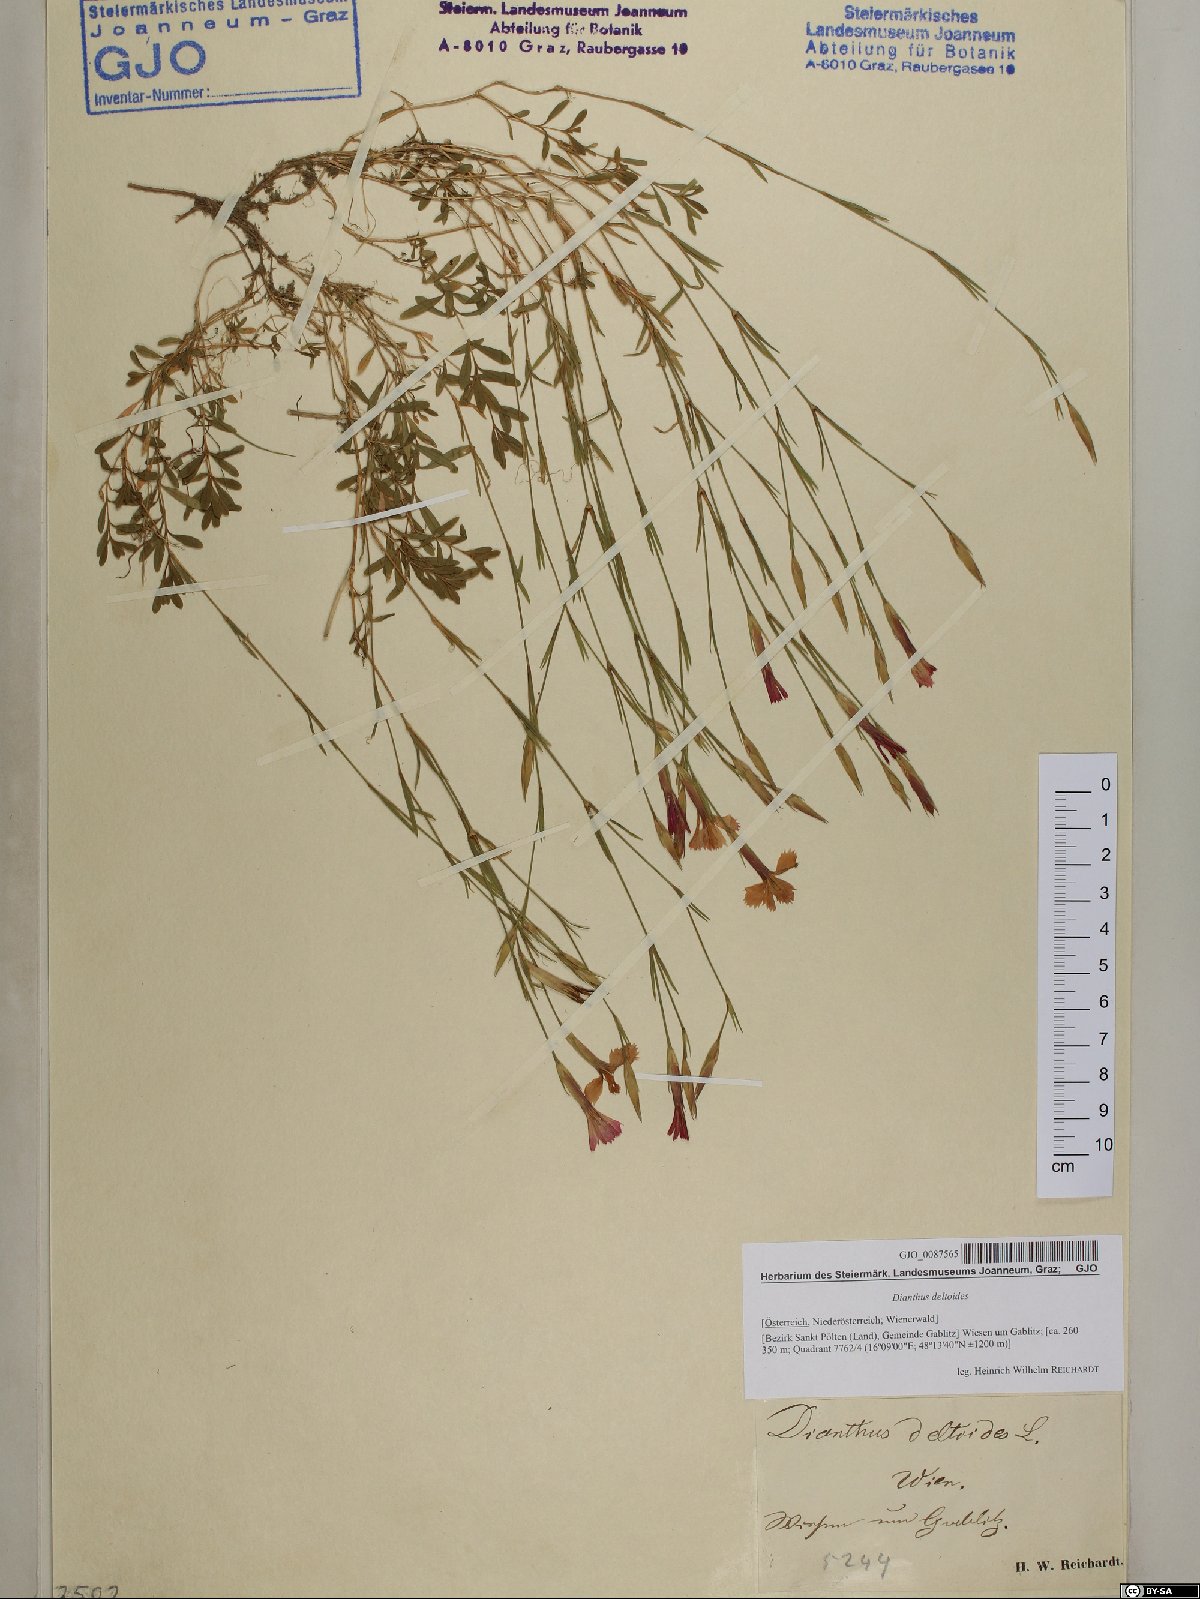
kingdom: Plantae
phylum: Tracheophyta
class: Magnoliopsida
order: Caryophyllales
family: Caryophyllaceae
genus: Dianthus
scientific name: Dianthus deltoides
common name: Maiden pink
